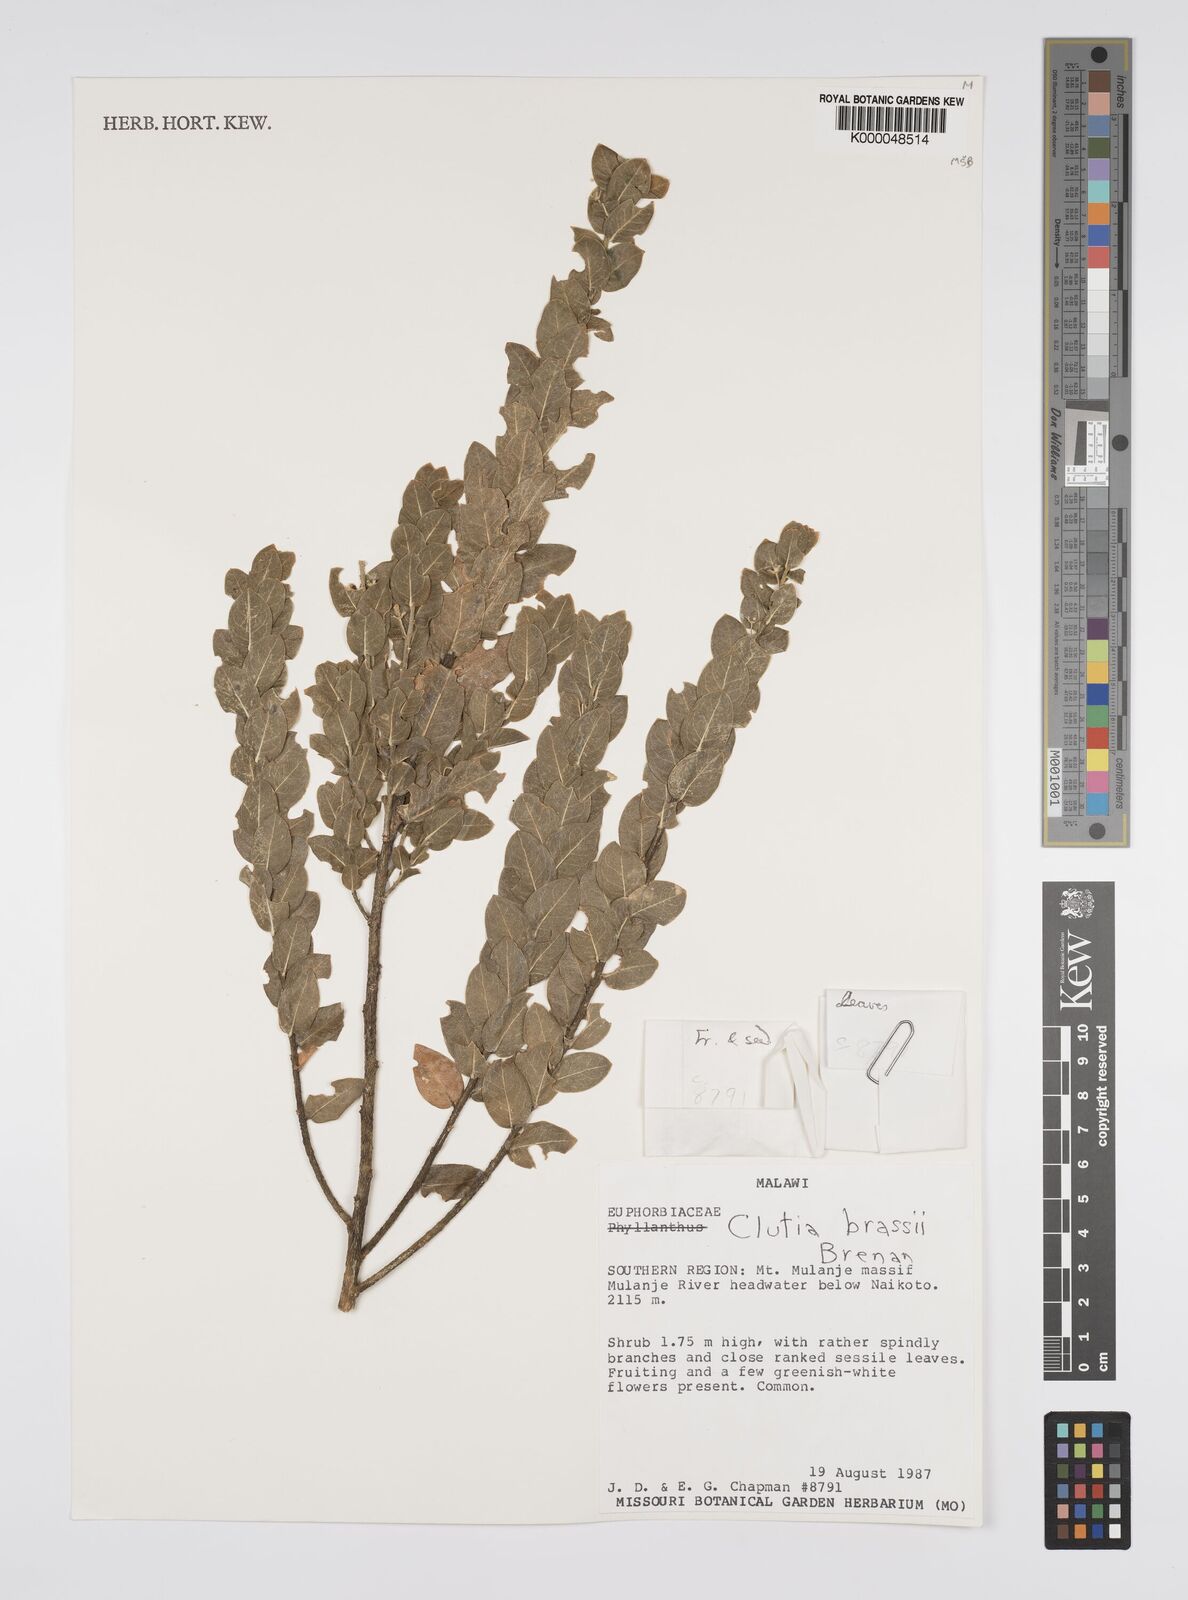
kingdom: Plantae
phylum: Tracheophyta
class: Magnoliopsida
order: Malpighiales
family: Peraceae
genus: Clutia
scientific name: Clutia brassii
